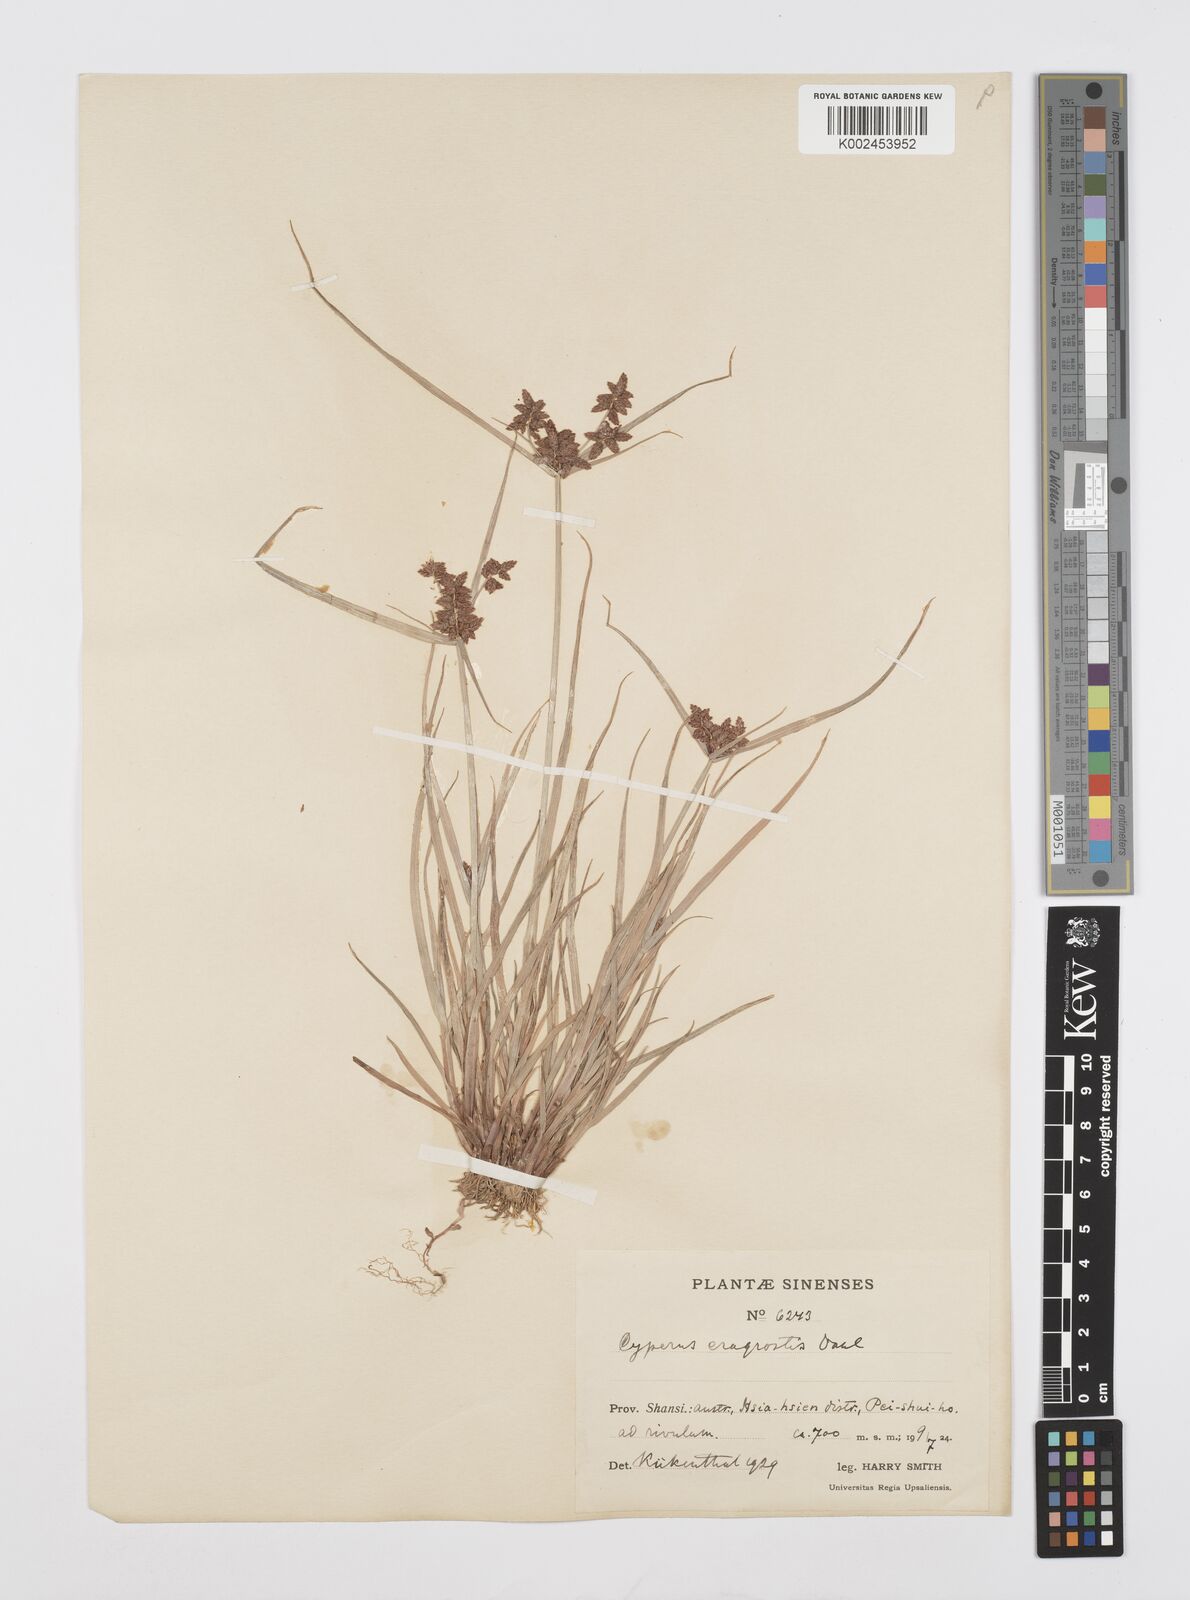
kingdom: Plantae
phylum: Tracheophyta
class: Liliopsida
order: Poales
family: Cyperaceae
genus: Cyperus
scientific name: Cyperus sanguinolentus
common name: Purpleglume flatsedge
